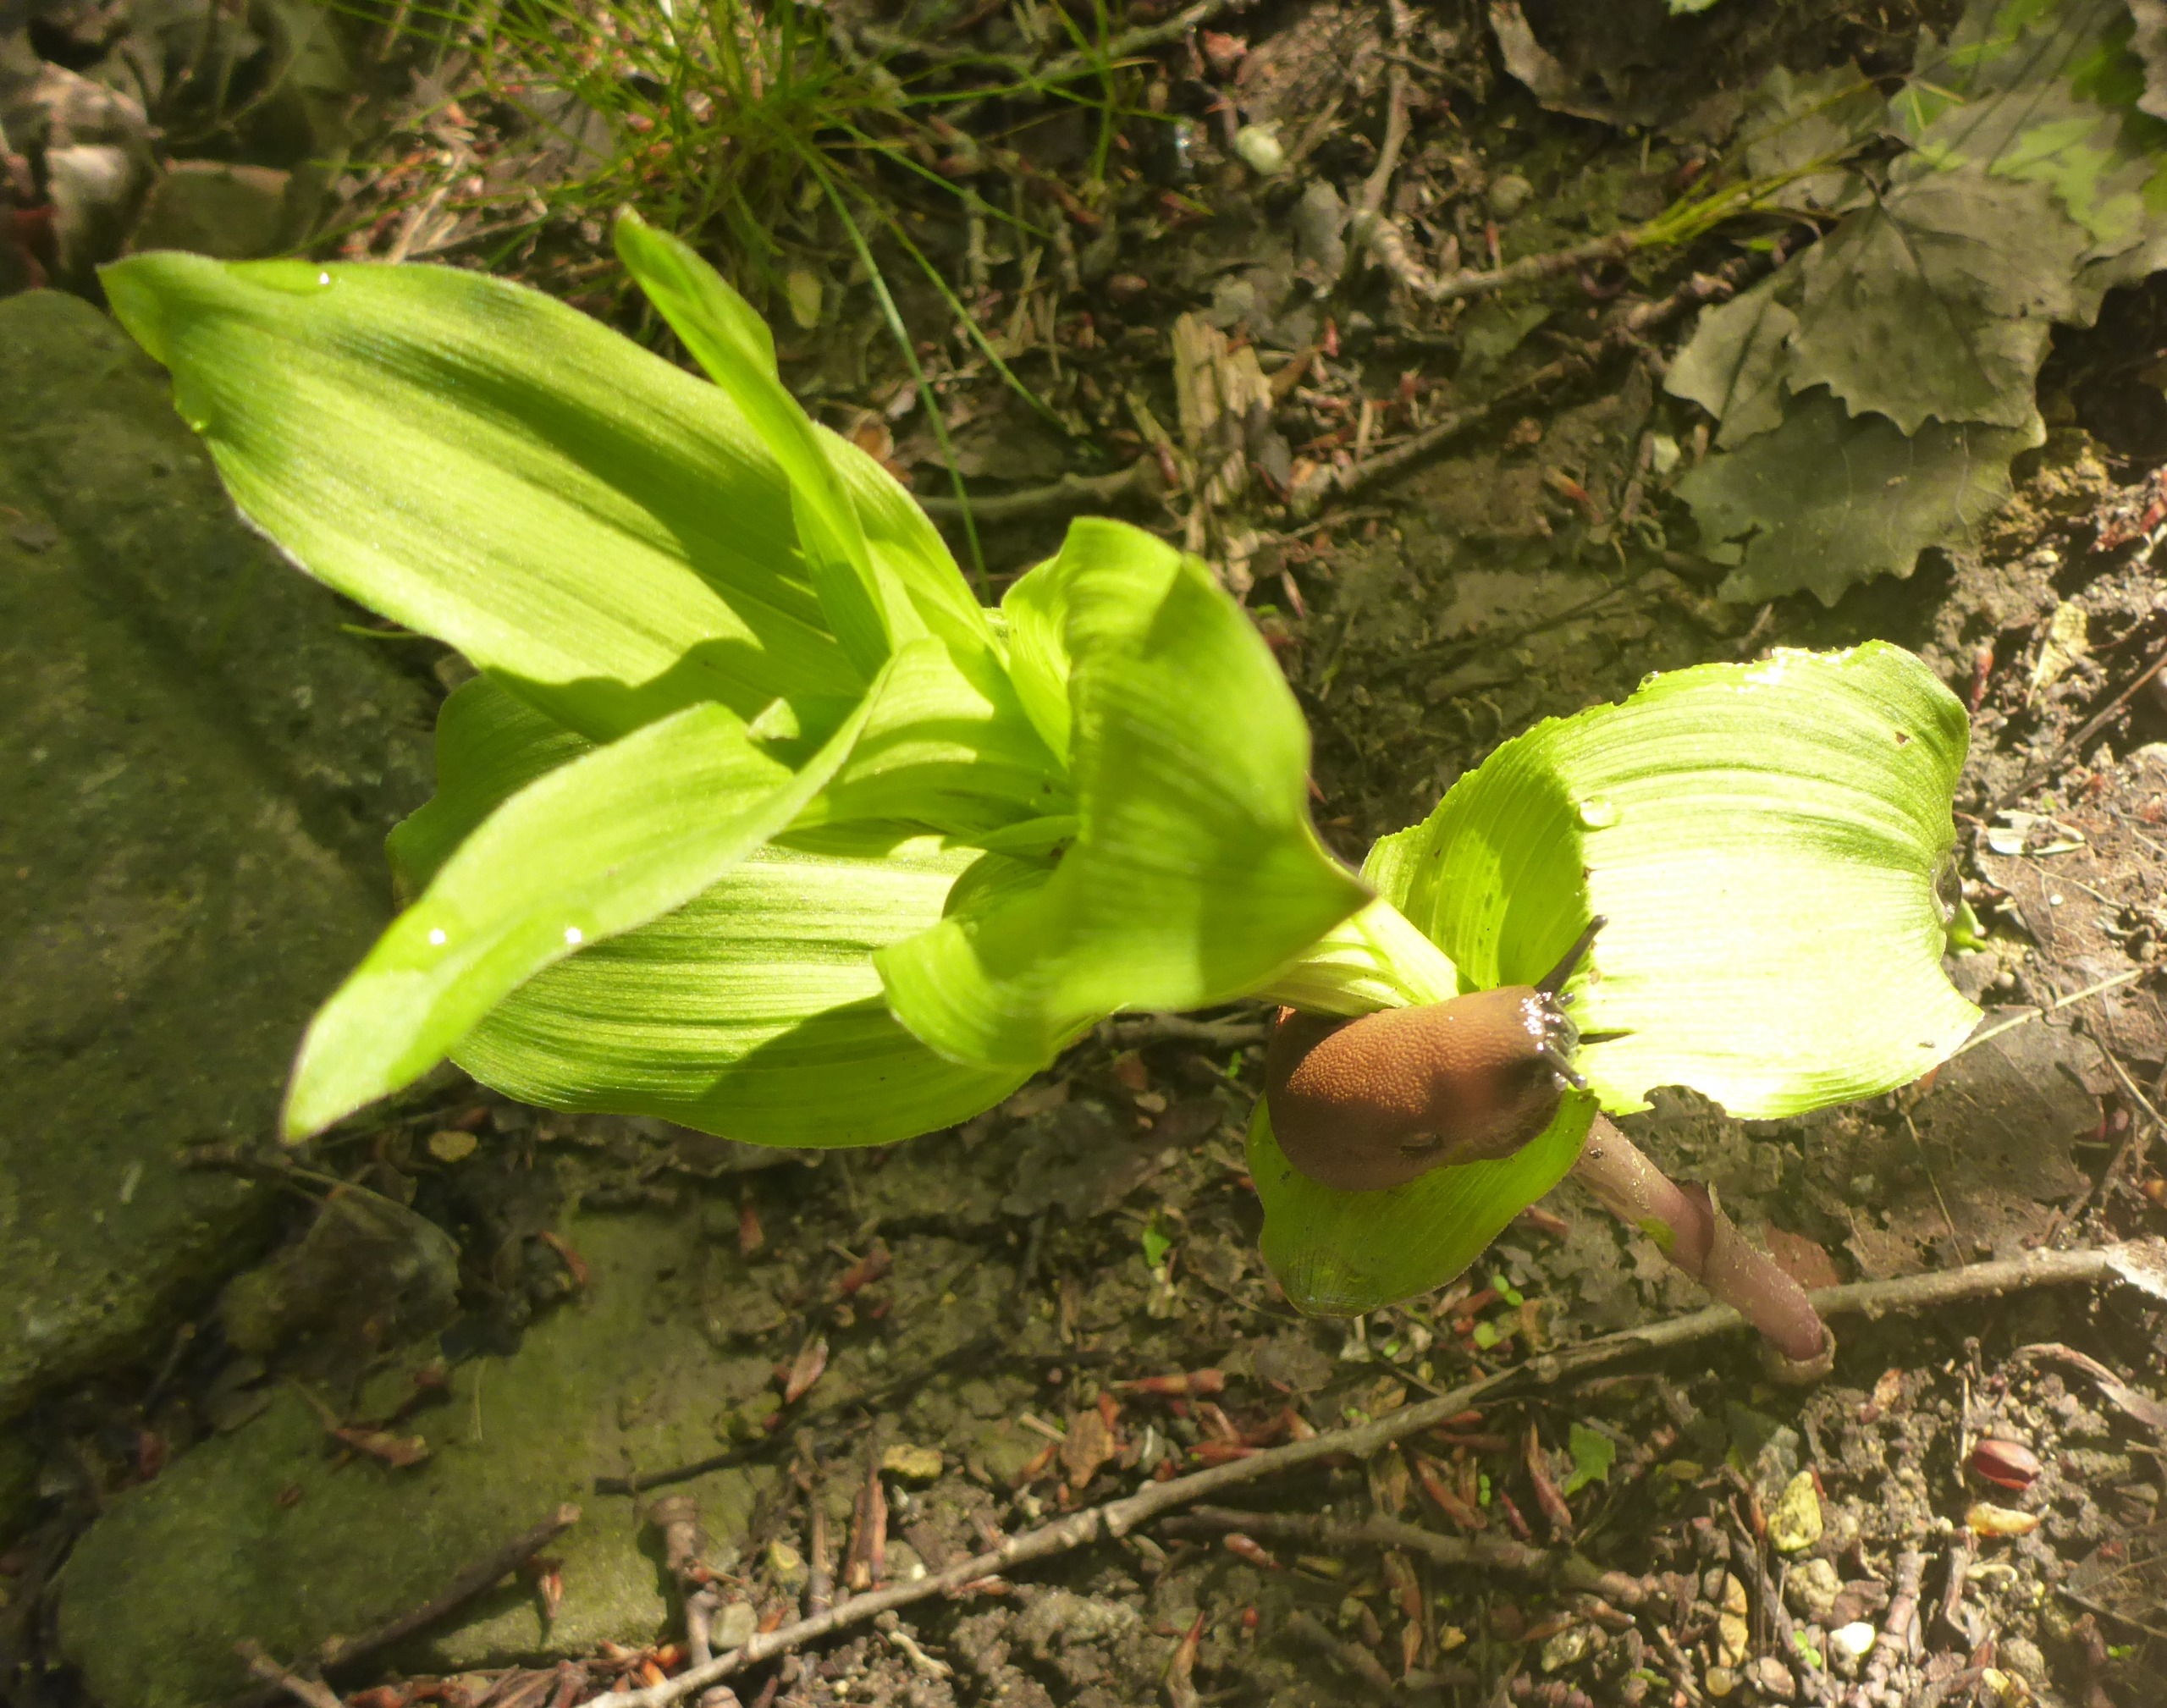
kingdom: Plantae
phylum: Tracheophyta
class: Liliopsida
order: Asparagales
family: Orchidaceae
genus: Epipactis
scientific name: Epipactis helleborine
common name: Skov-hullæbe
